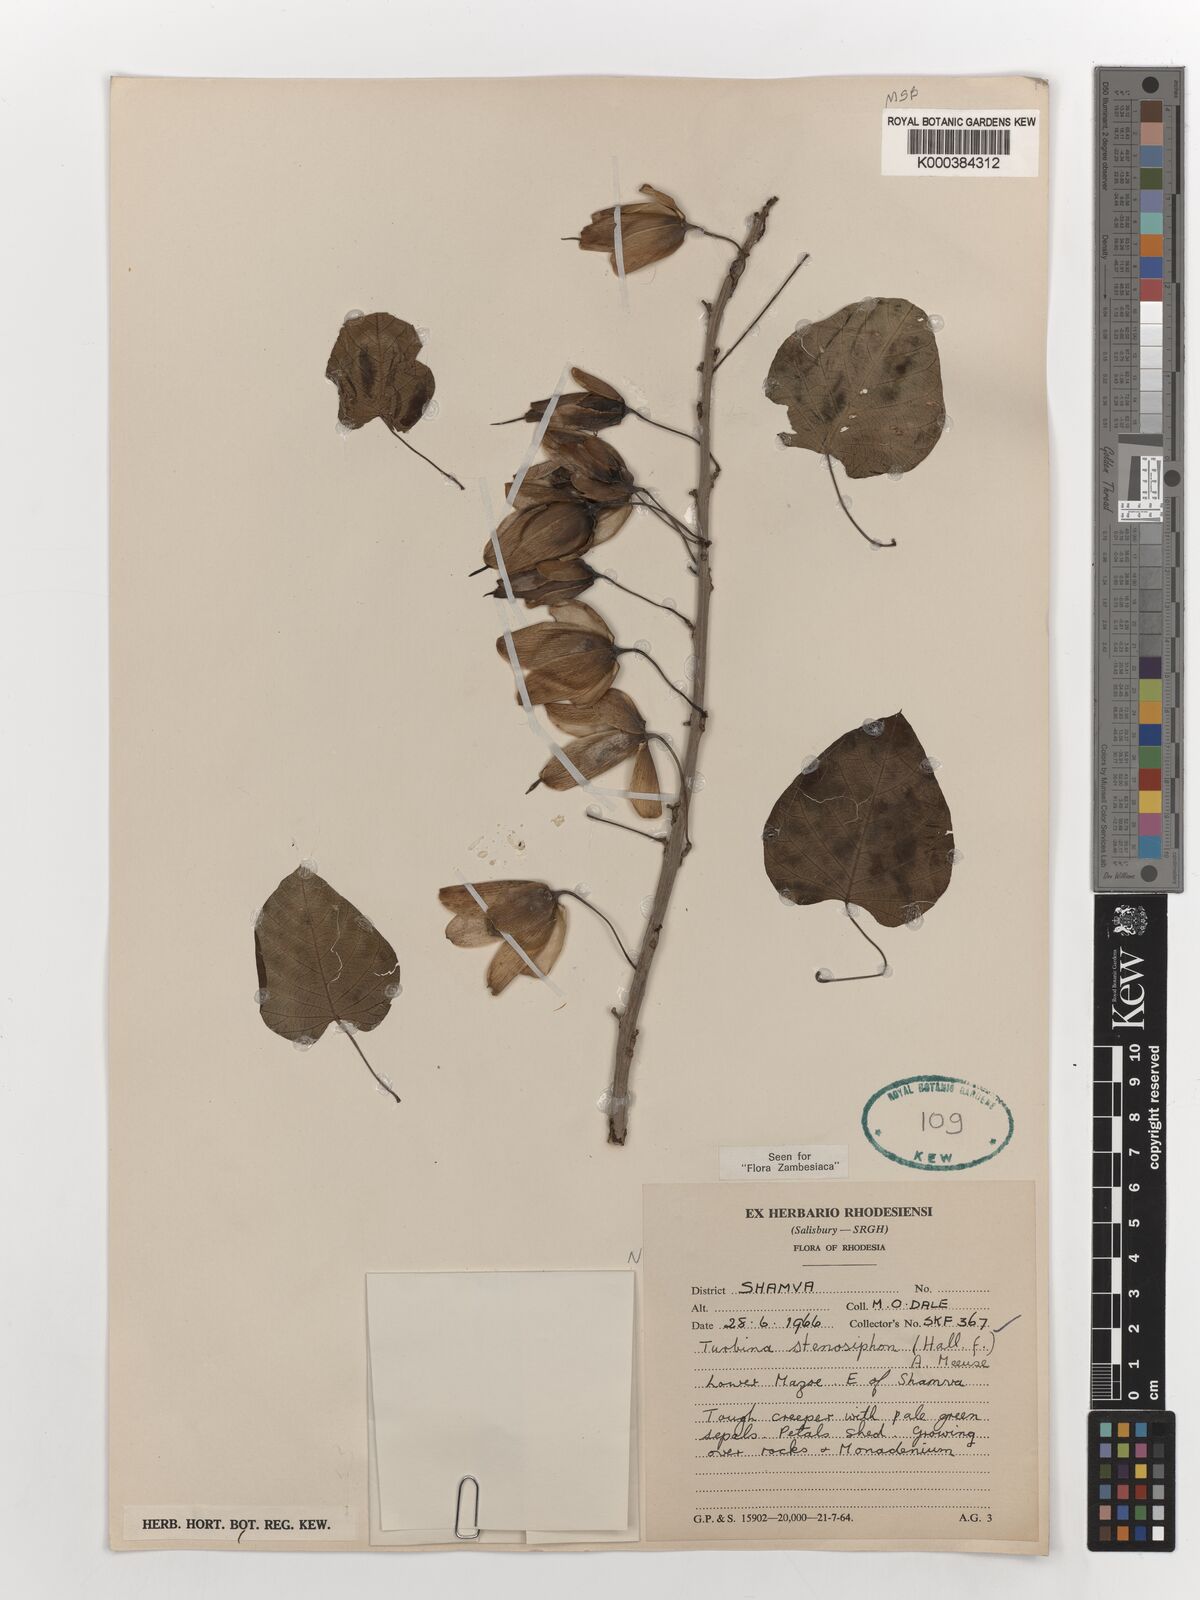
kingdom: Plantae
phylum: Tracheophyta
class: Magnoliopsida
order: Solanales
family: Convolvulaceae
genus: Ipomoea
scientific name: Ipomoea stenosiphon
